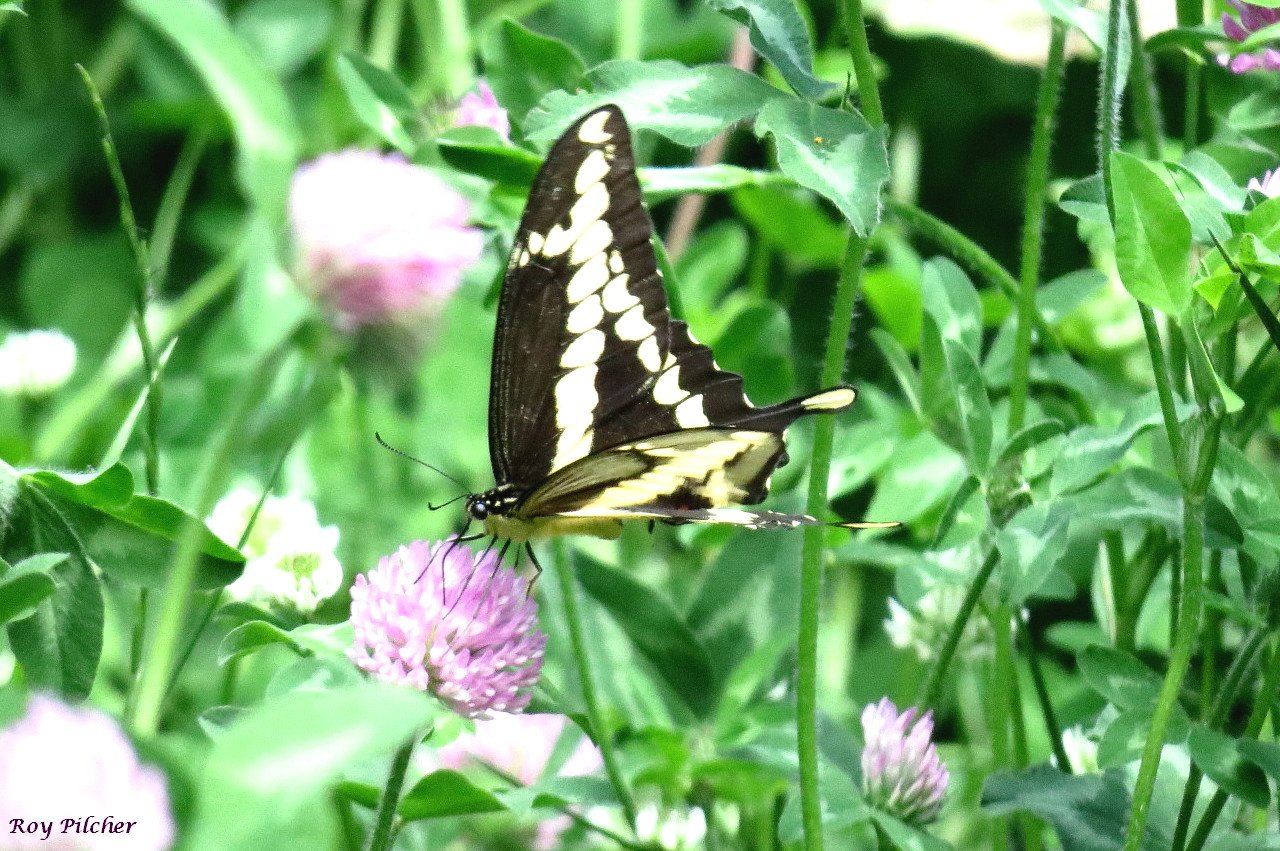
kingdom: Animalia
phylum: Arthropoda
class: Insecta
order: Lepidoptera
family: Papilionidae
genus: Papilio
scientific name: Papilio cresphontes
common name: Eastern Giant Swallowtail
